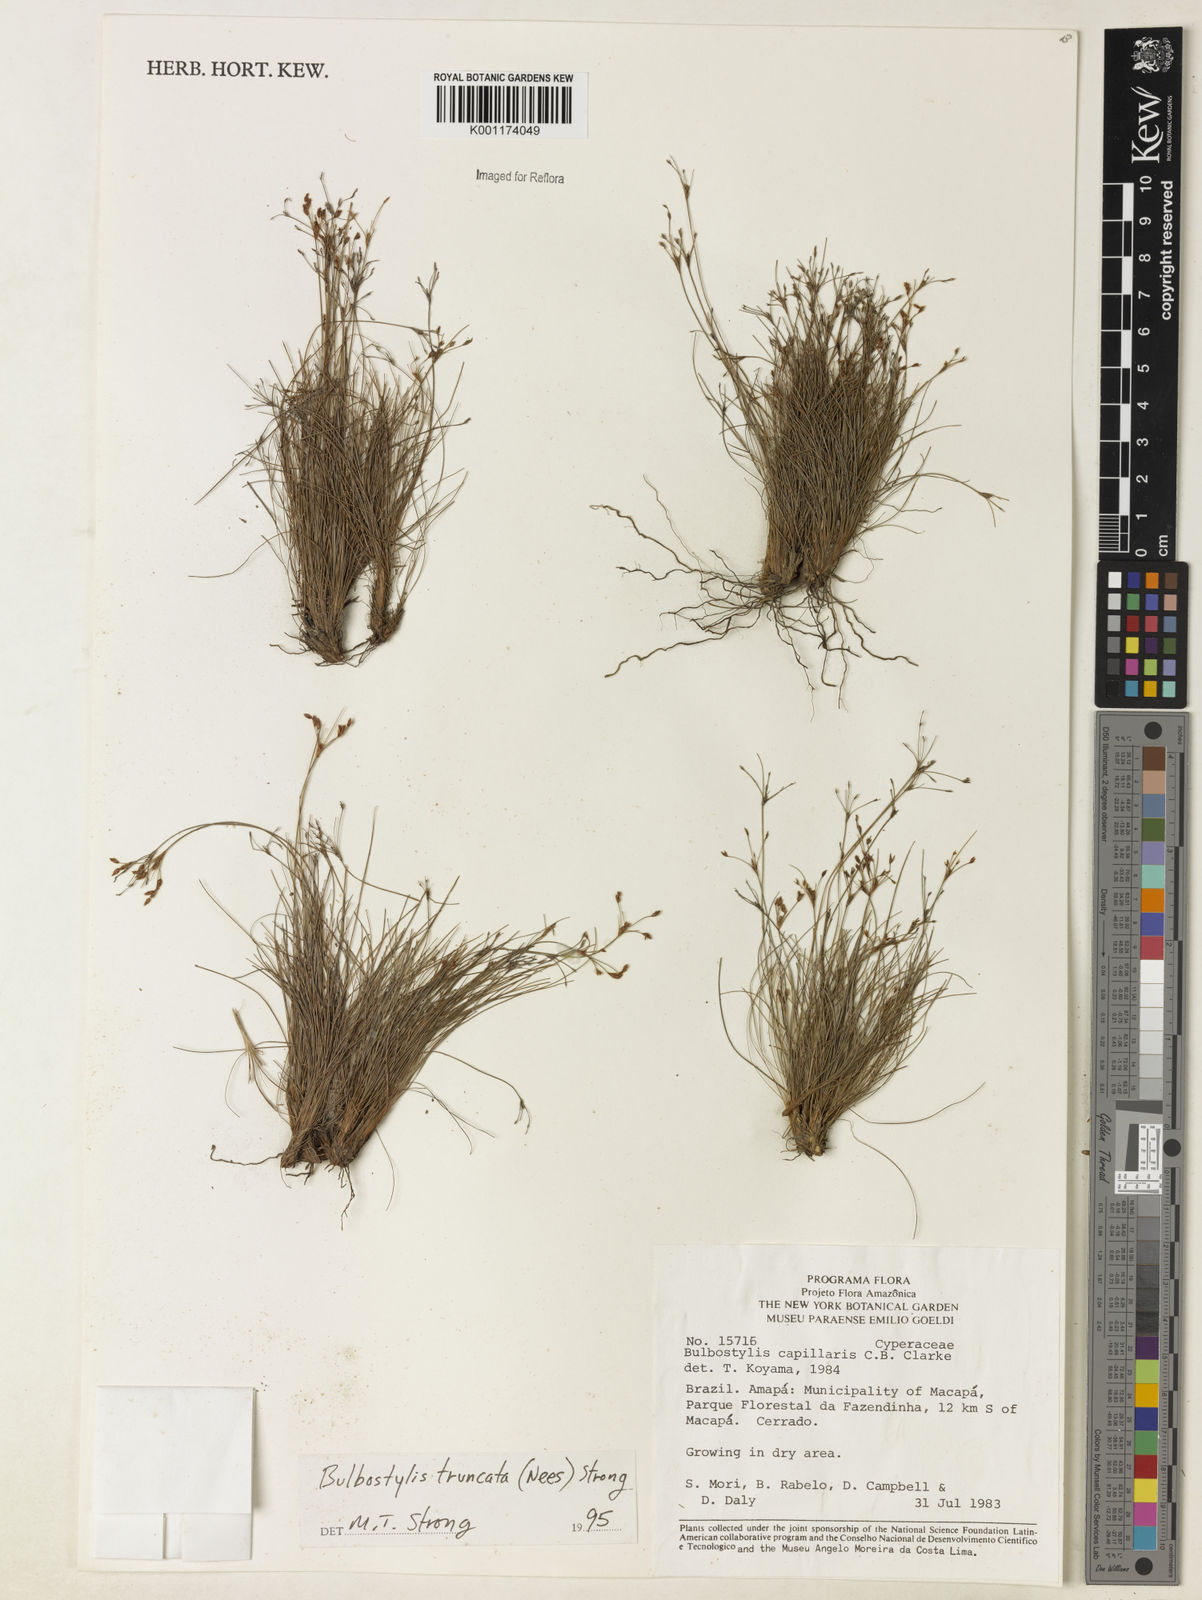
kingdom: Plantae
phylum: Tracheophyta
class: Liliopsida
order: Poales
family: Cyperaceae
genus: Bulbostylis
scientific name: Bulbostylis truncata
